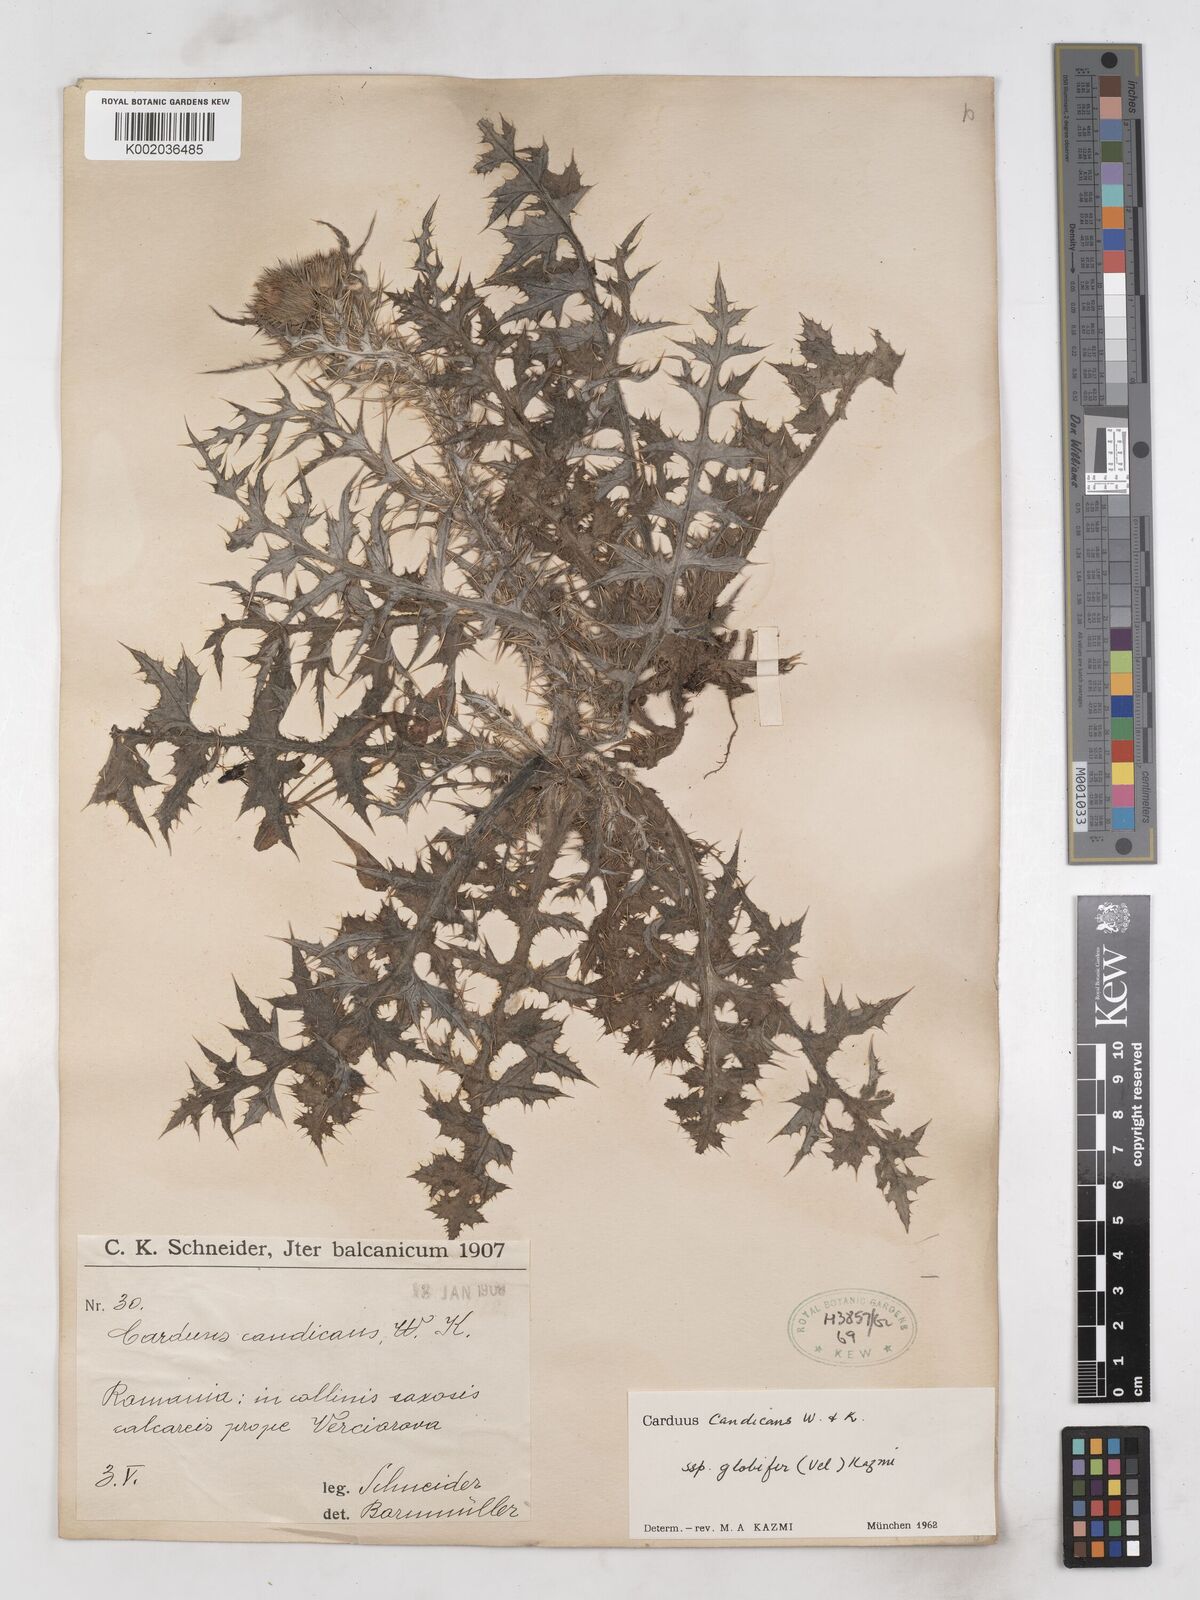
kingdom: Plantae
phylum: Tracheophyta
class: Magnoliopsida
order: Asterales
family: Asteraceae
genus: Carduus
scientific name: Carduus candicans
